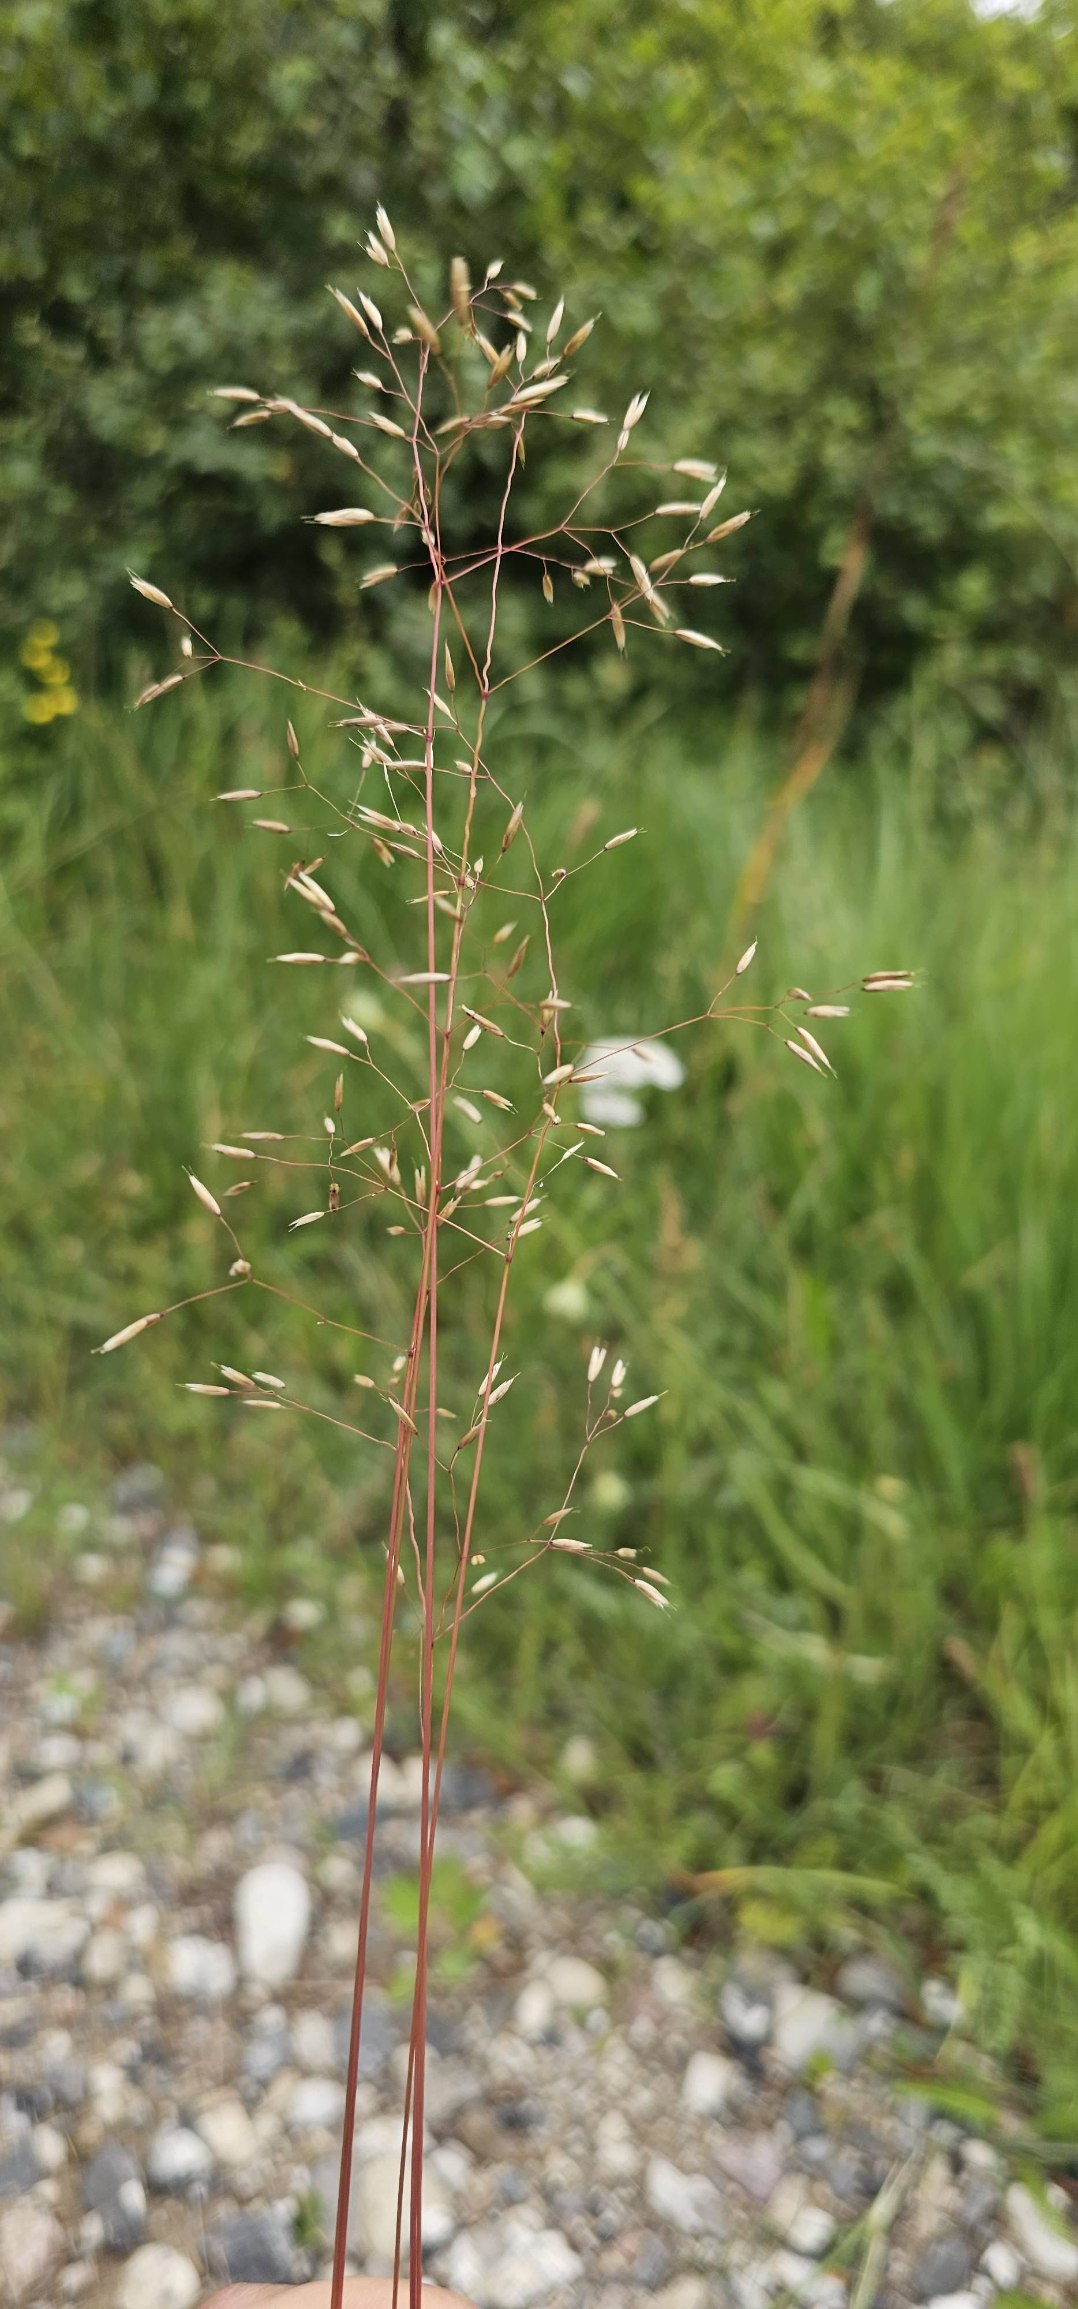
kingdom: Plantae
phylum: Tracheophyta
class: Liliopsida
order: Poales
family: Poaceae
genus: Avenella
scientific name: Avenella flexuosa
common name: Bølget bunke
